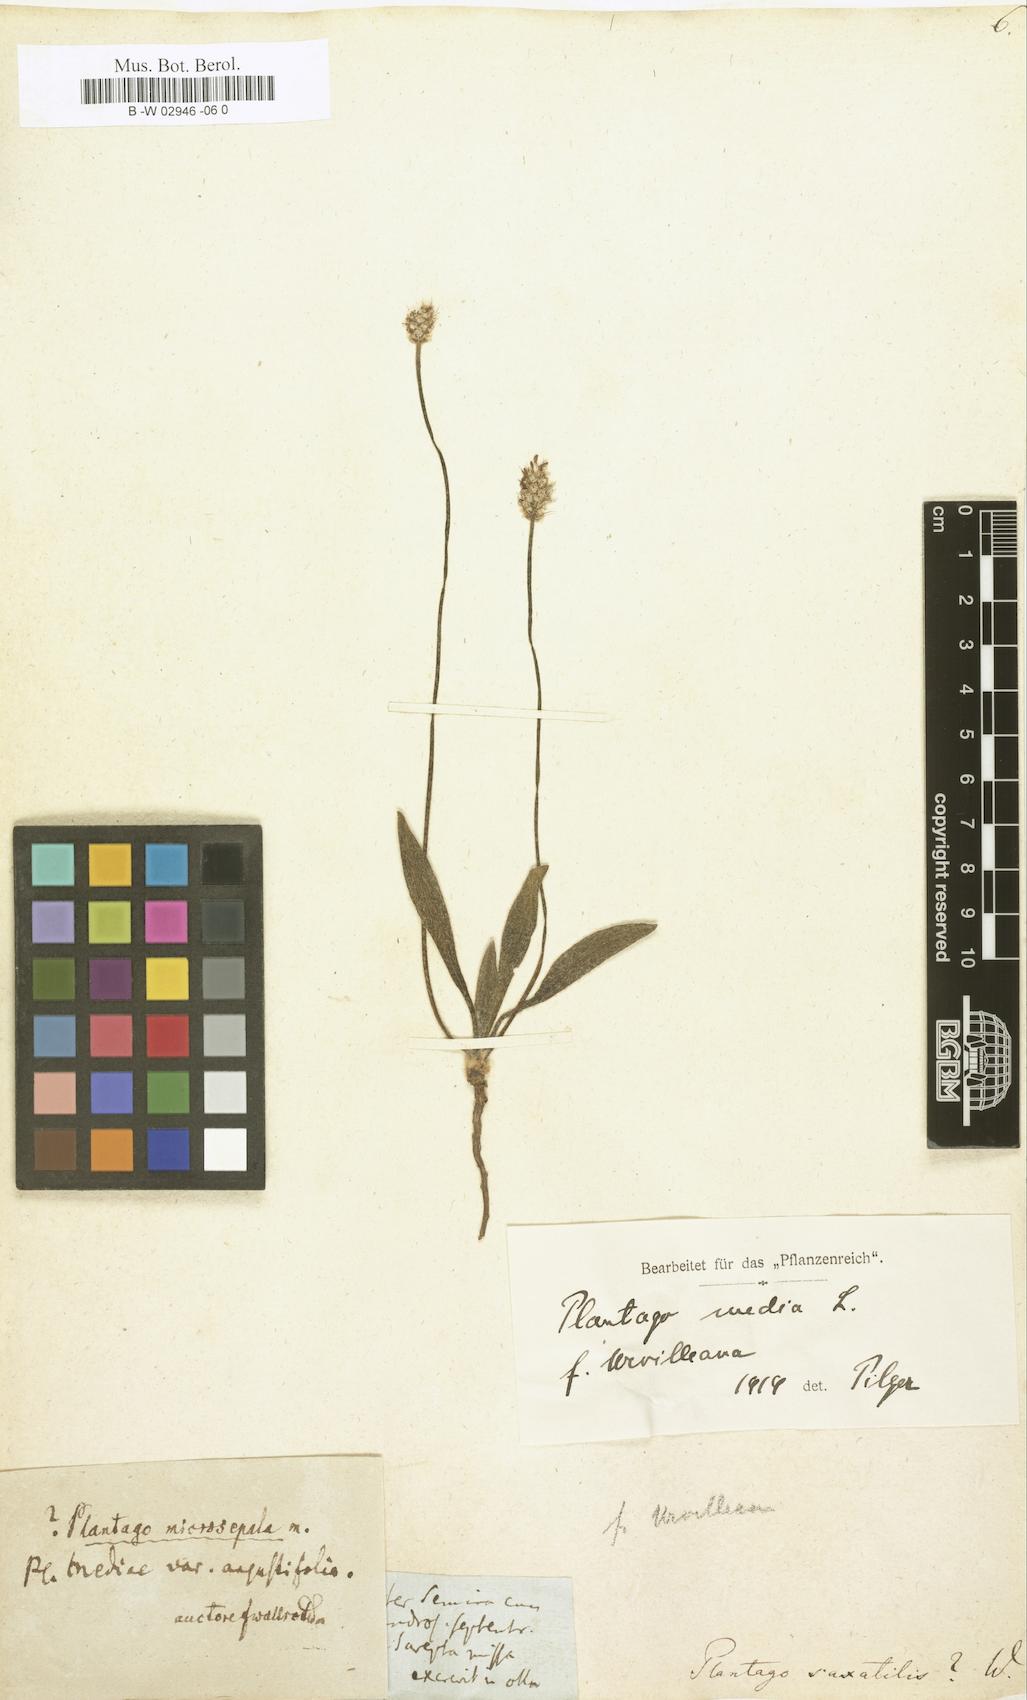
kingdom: Plantae
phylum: Tracheophyta
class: Magnoliopsida
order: Lamiales
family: Plantaginaceae
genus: Plantago
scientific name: Plantago atrata
